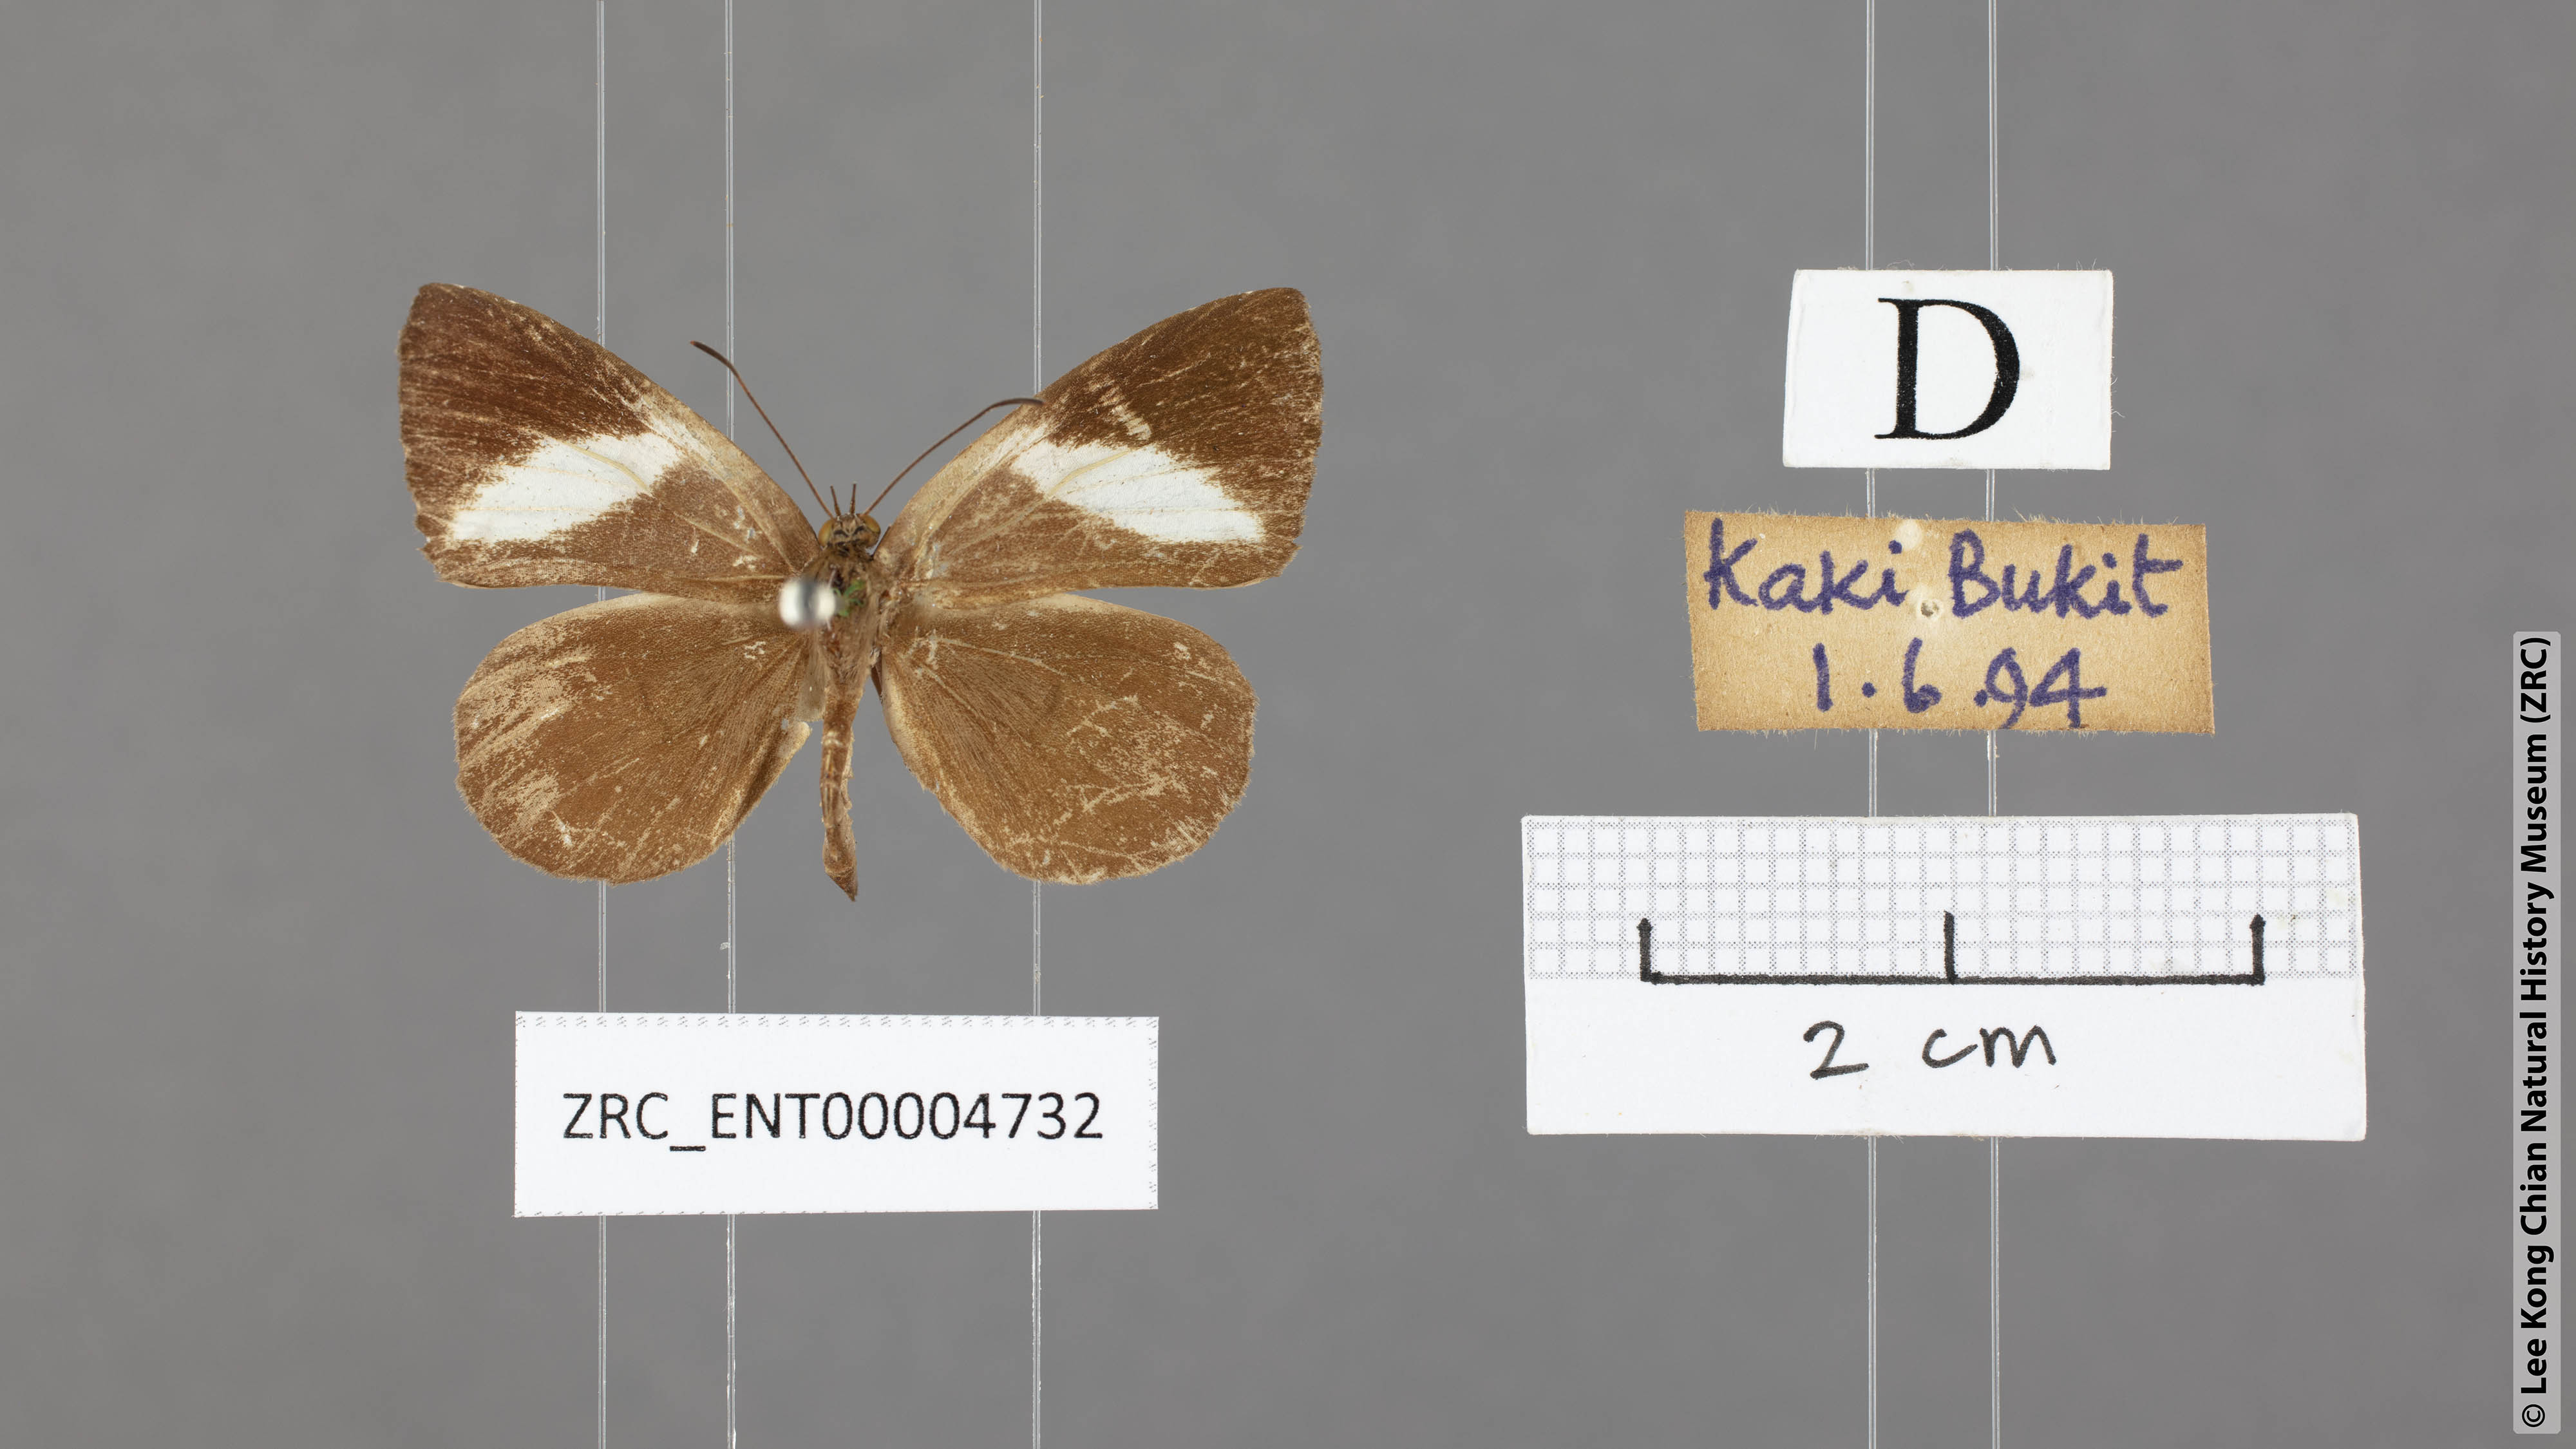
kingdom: Animalia
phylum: Arthropoda
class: Insecta
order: Lepidoptera
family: Lycaenidae
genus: Miletus
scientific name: Miletus gopara
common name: Round-banded brownie
